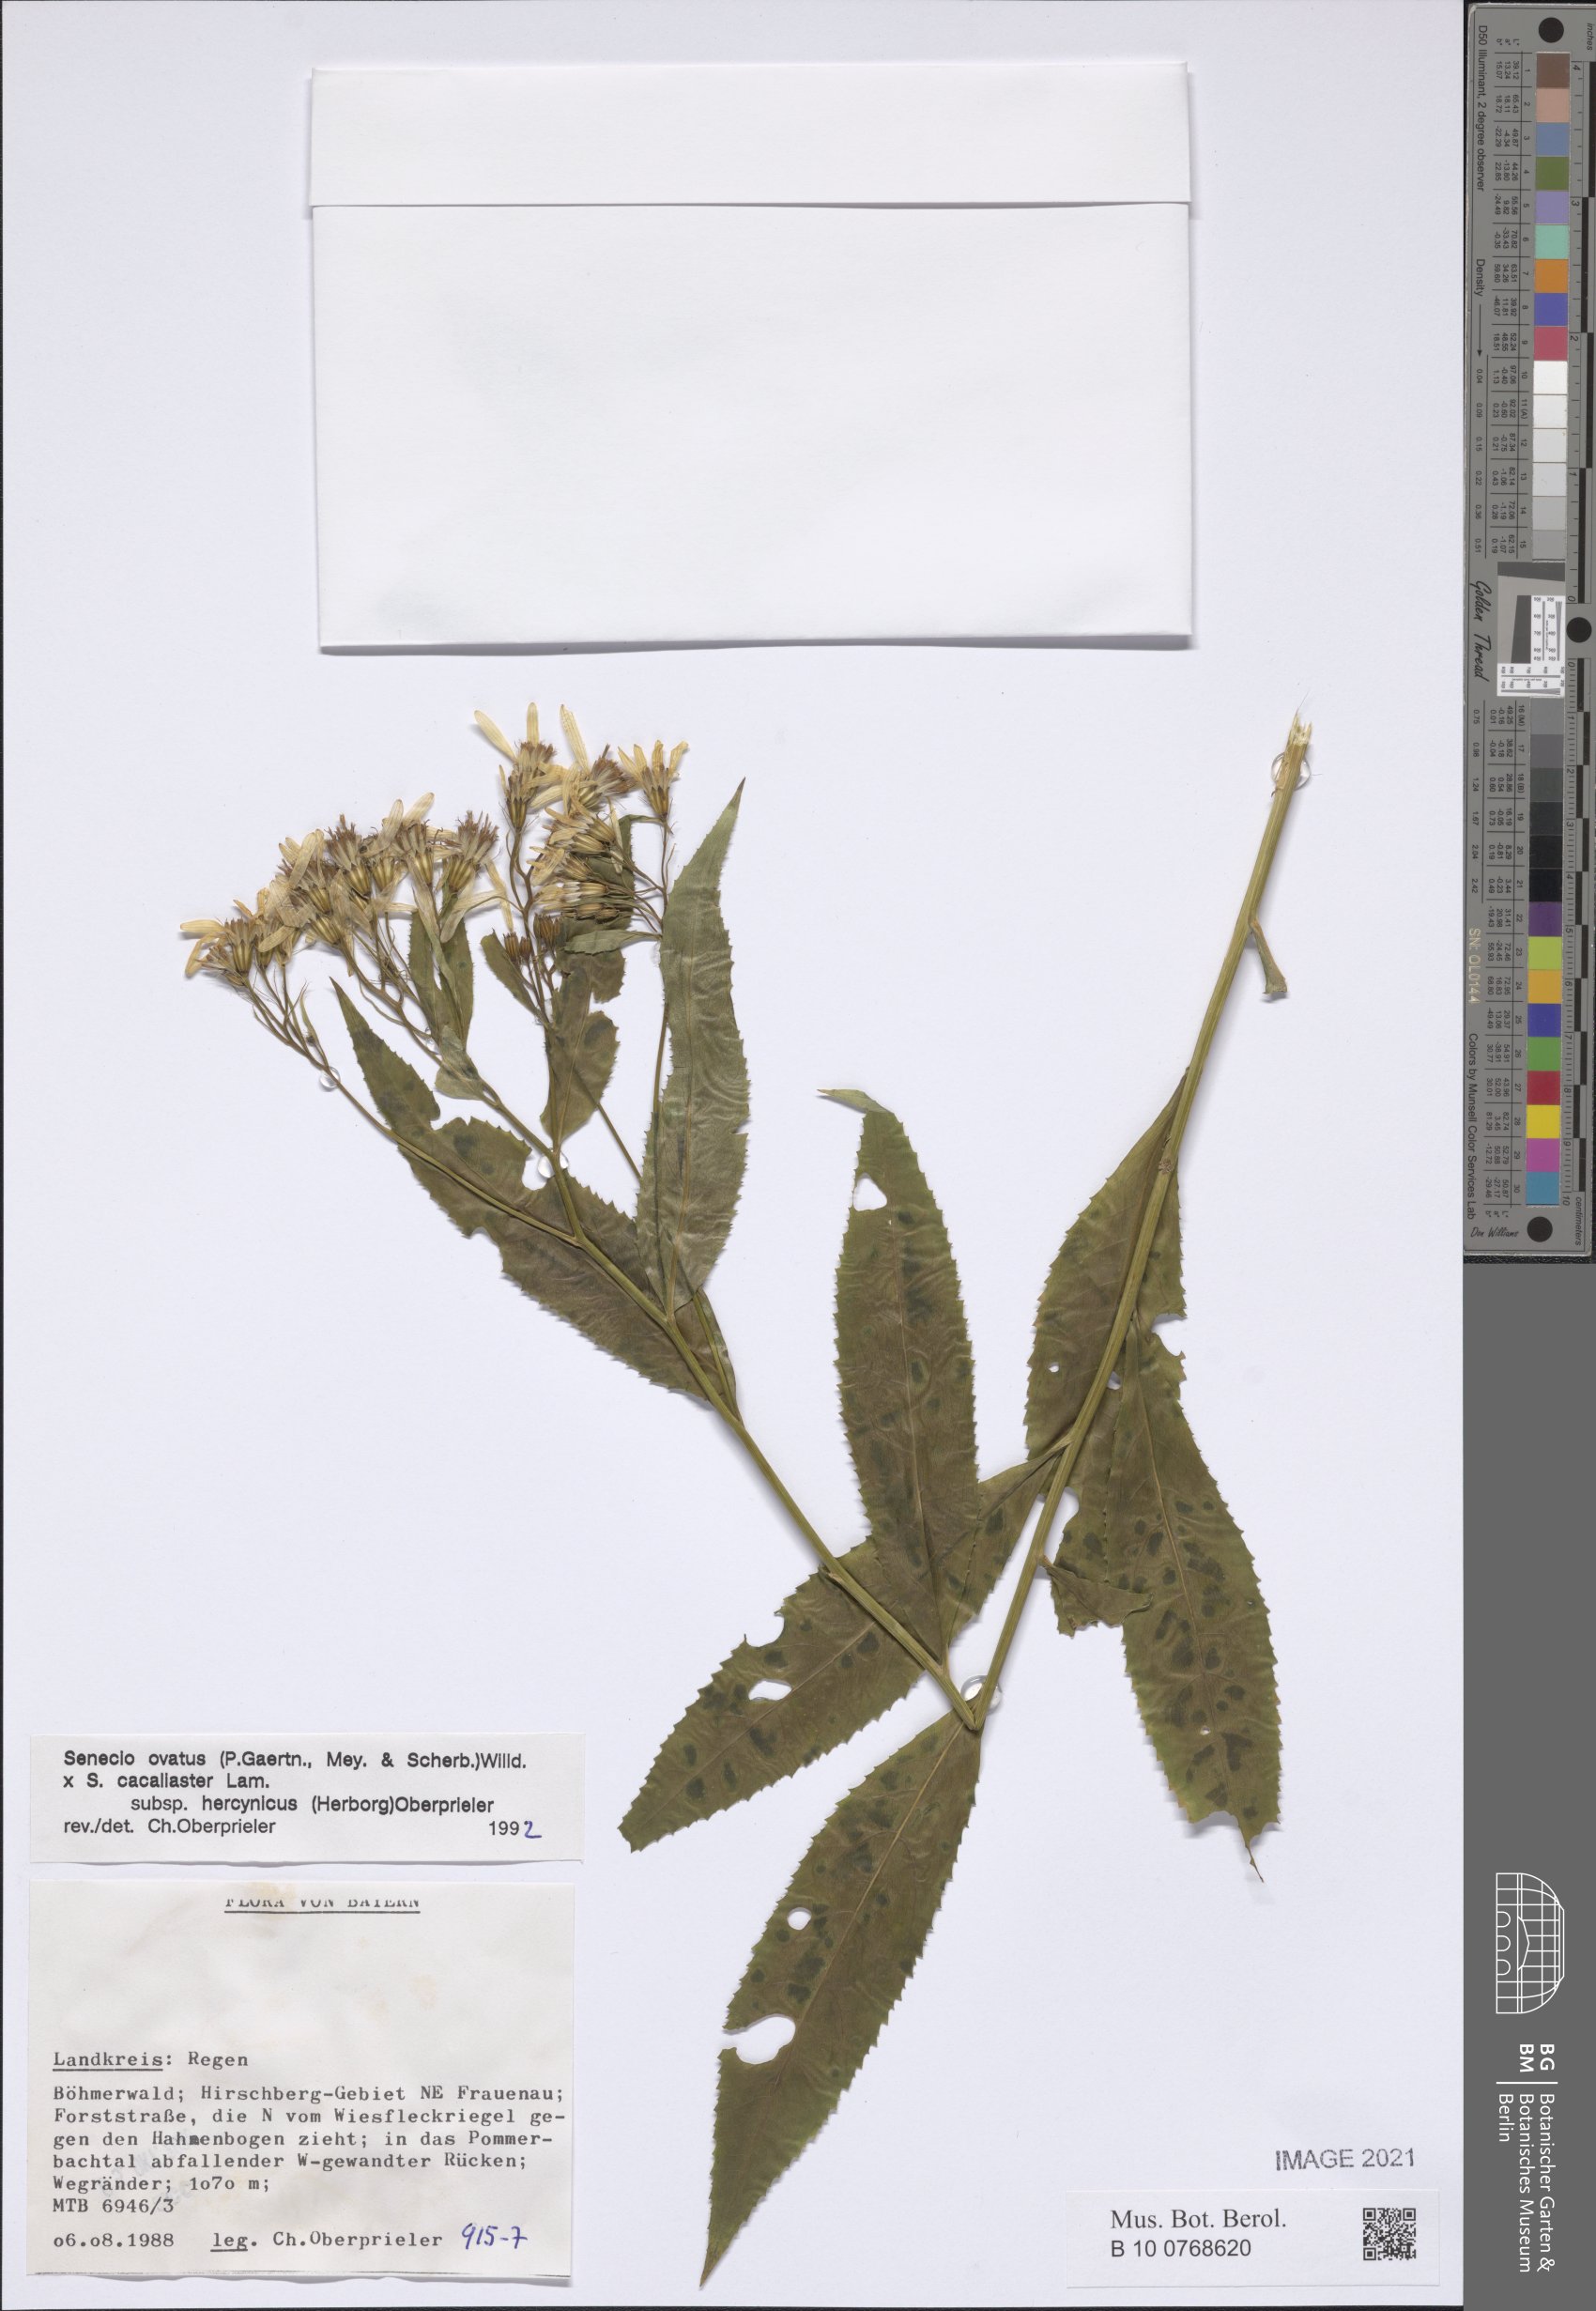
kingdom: Plantae
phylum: Tracheophyta
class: Magnoliopsida
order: Asterales
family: Asteraceae
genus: Senecio
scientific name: Senecio ovatus
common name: Wood ragwort
